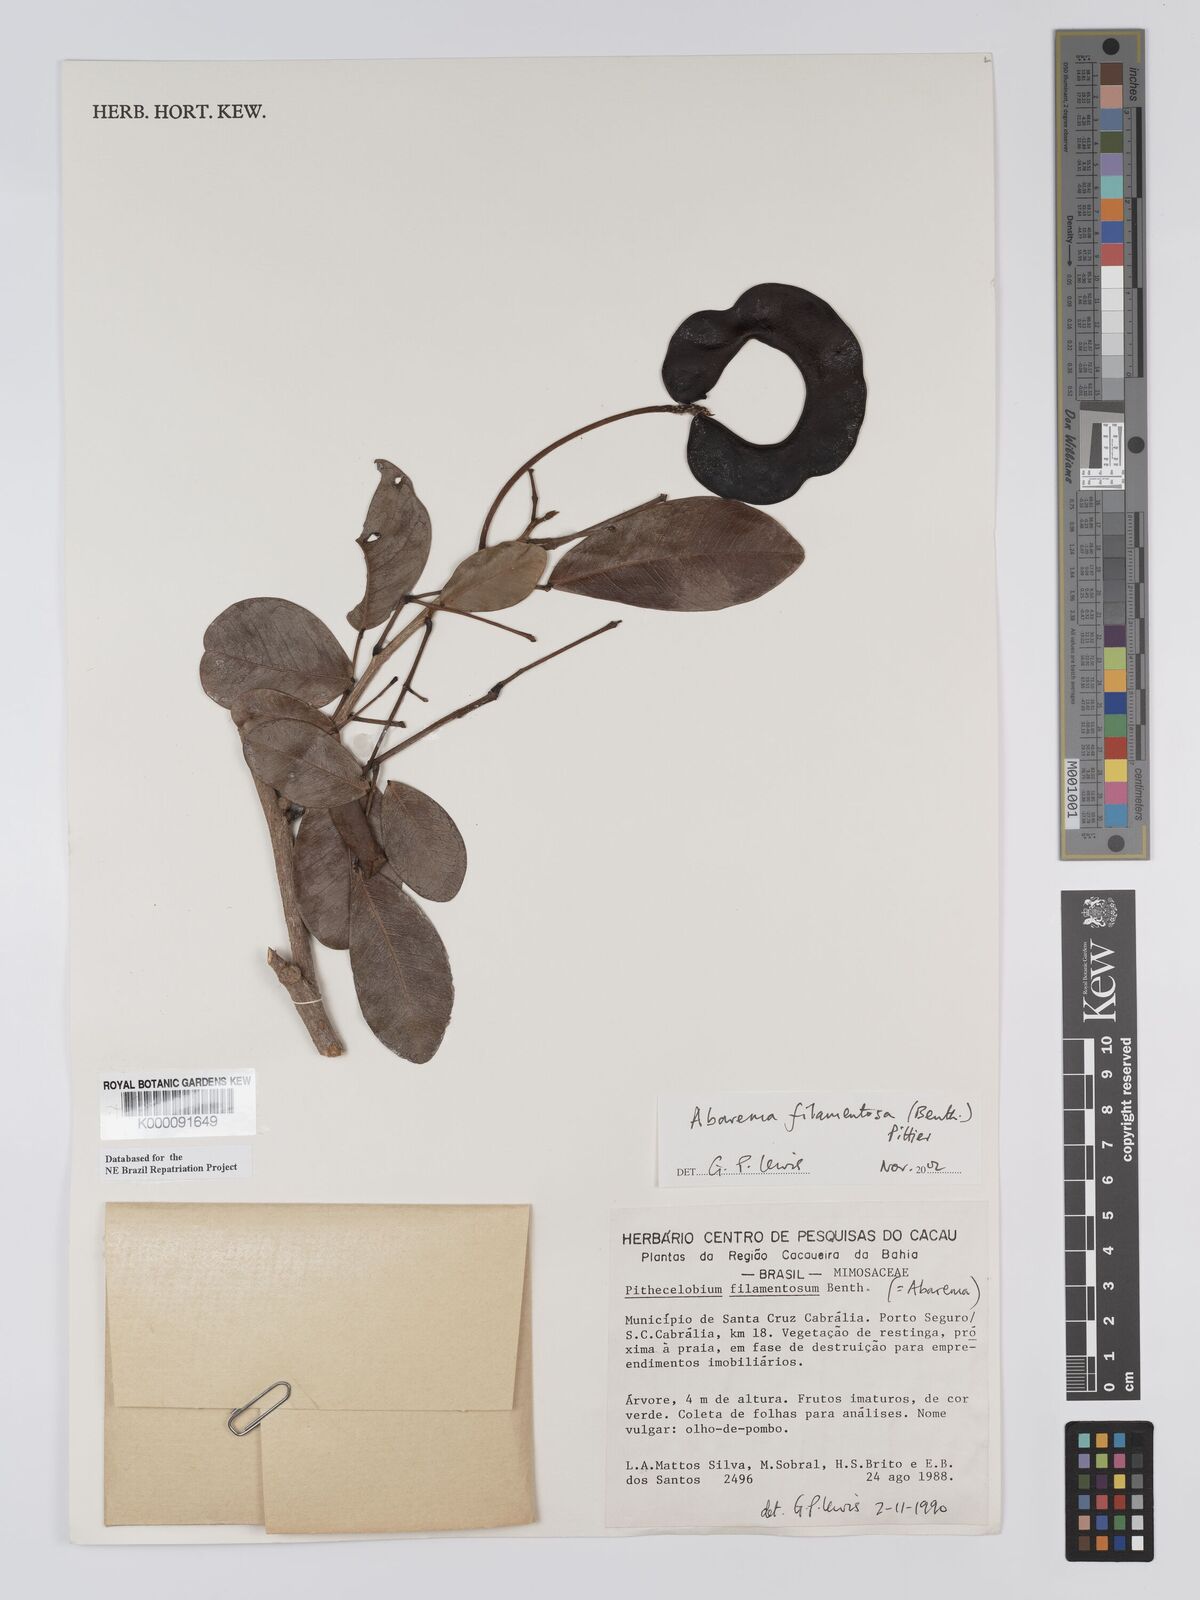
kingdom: Plantae
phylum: Tracheophyta
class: Magnoliopsida
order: Fabales
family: Fabaceae
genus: Jupunba
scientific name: Jupunba filamentosa
